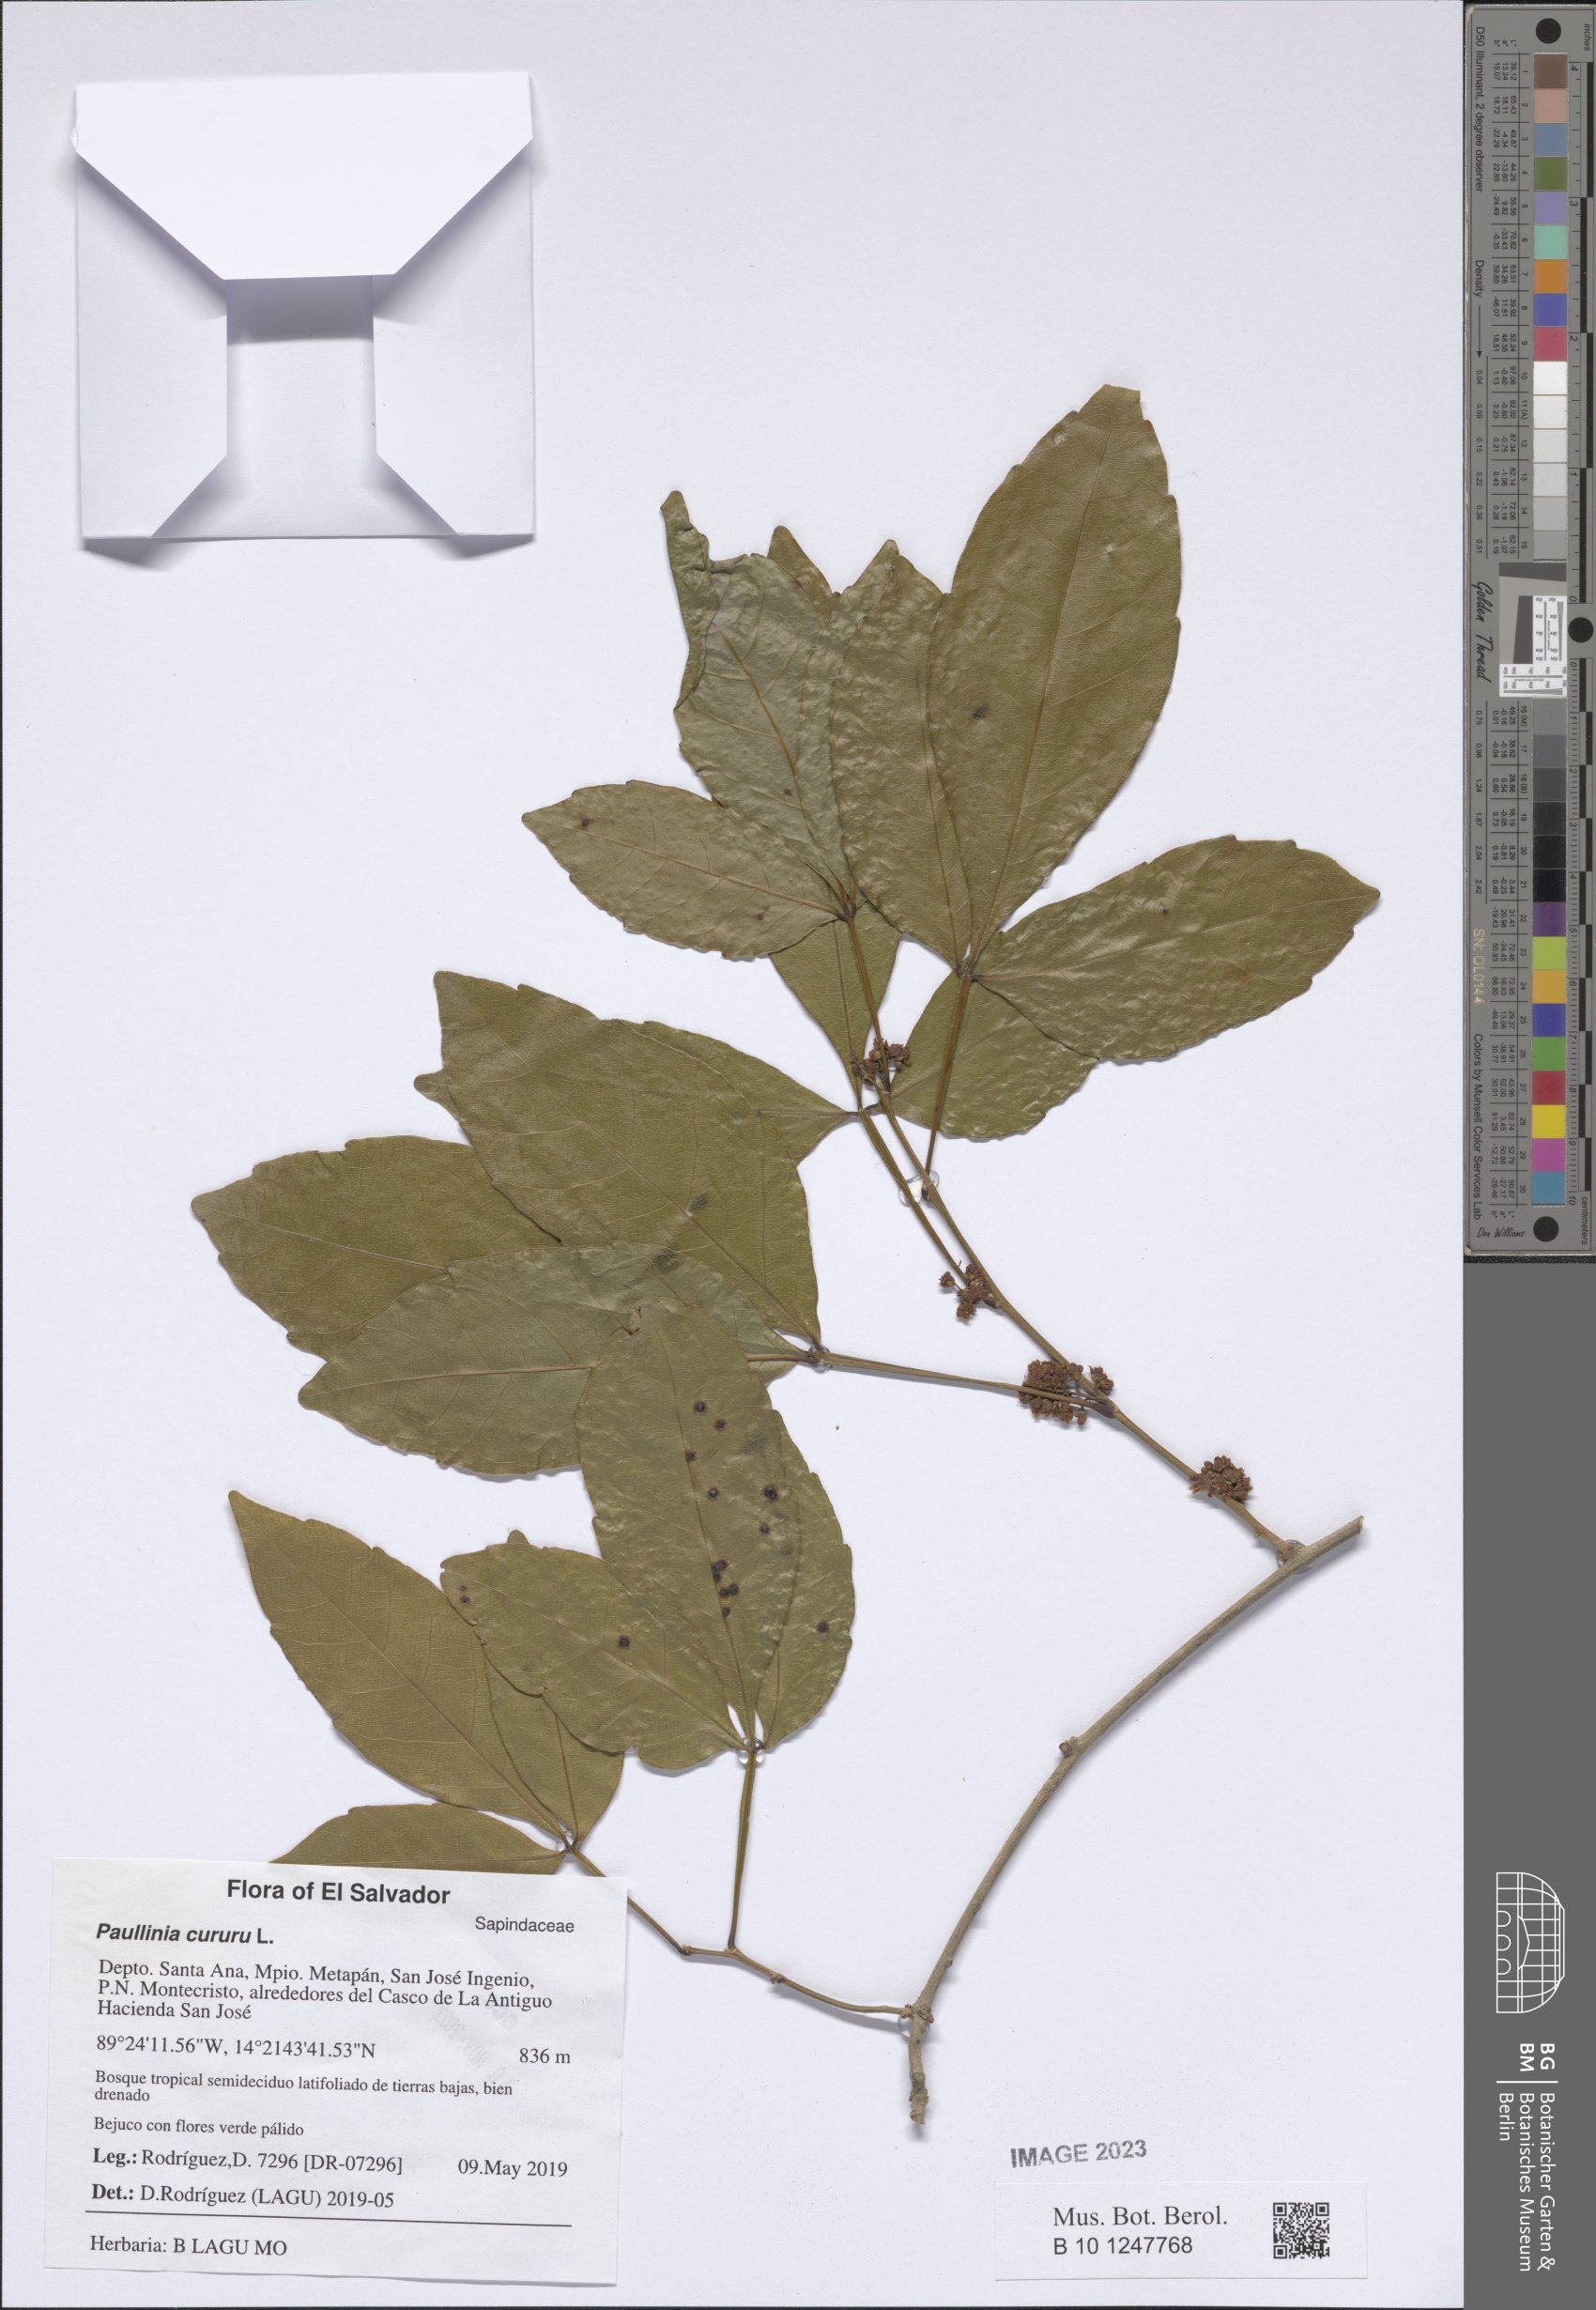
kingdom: Plantae
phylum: Tracheophyta
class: Magnoliopsida
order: Sapindales
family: Sapindaceae
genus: Paullinia
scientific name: Paullinia cururu
